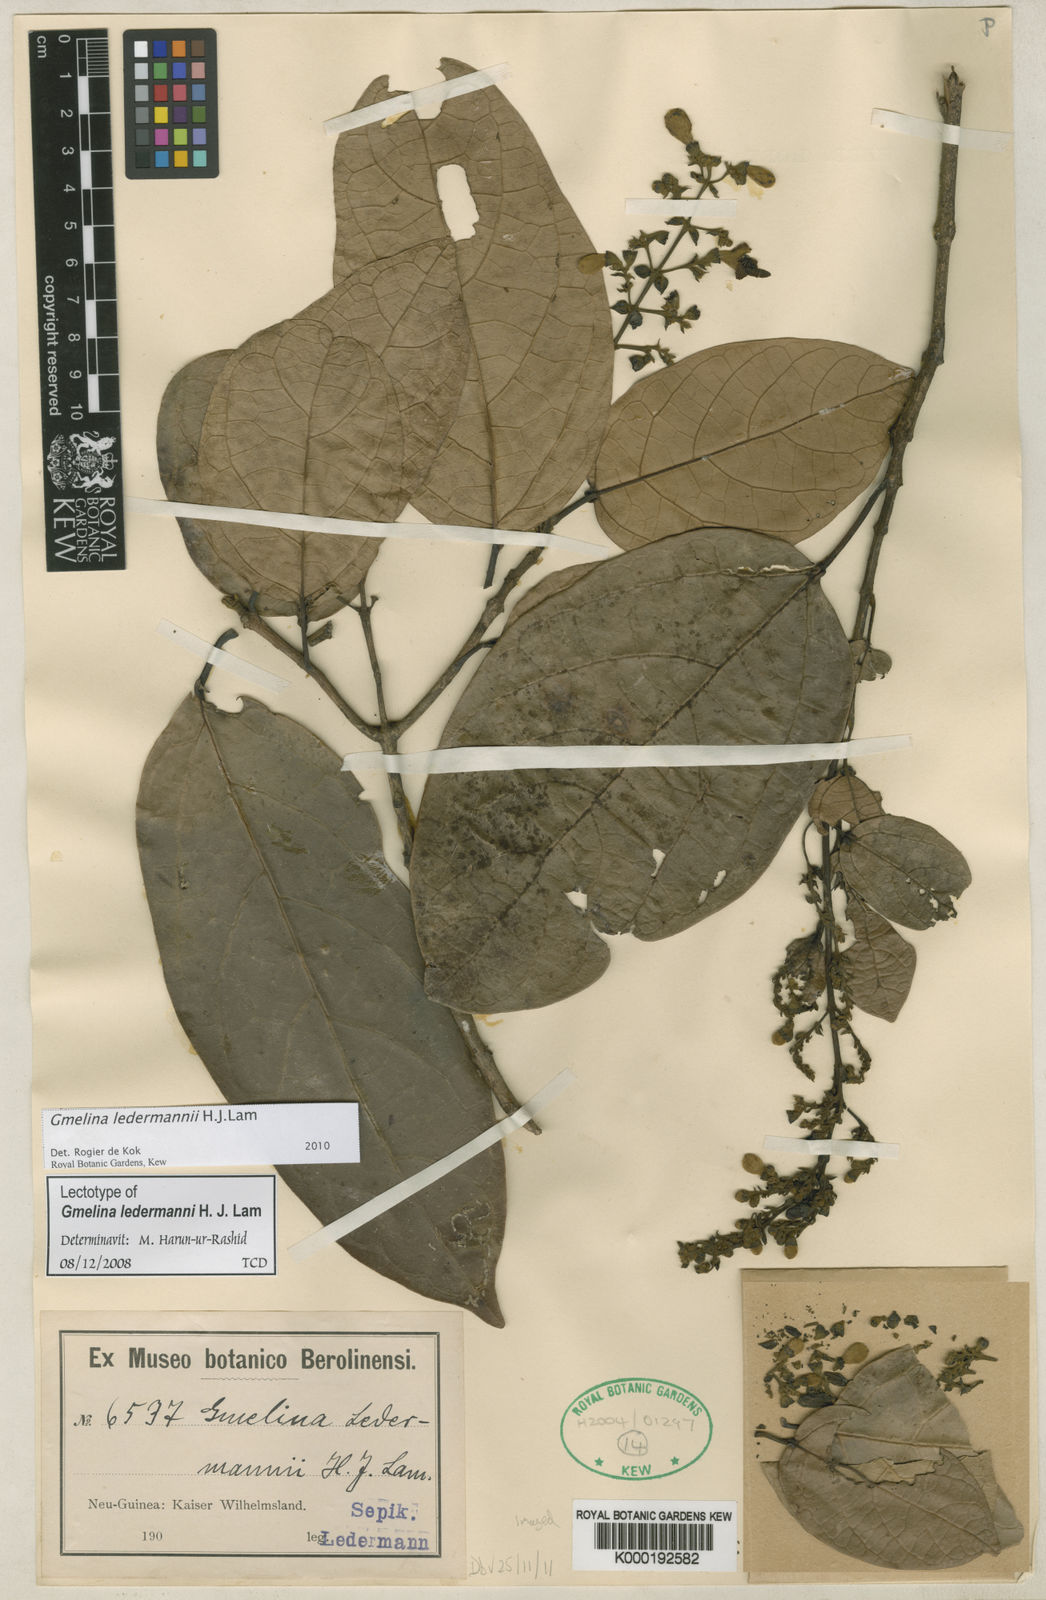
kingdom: Plantae
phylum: Tracheophyta
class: Magnoliopsida
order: Lamiales
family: Lamiaceae
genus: Gmelina
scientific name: Gmelina ledermannii
